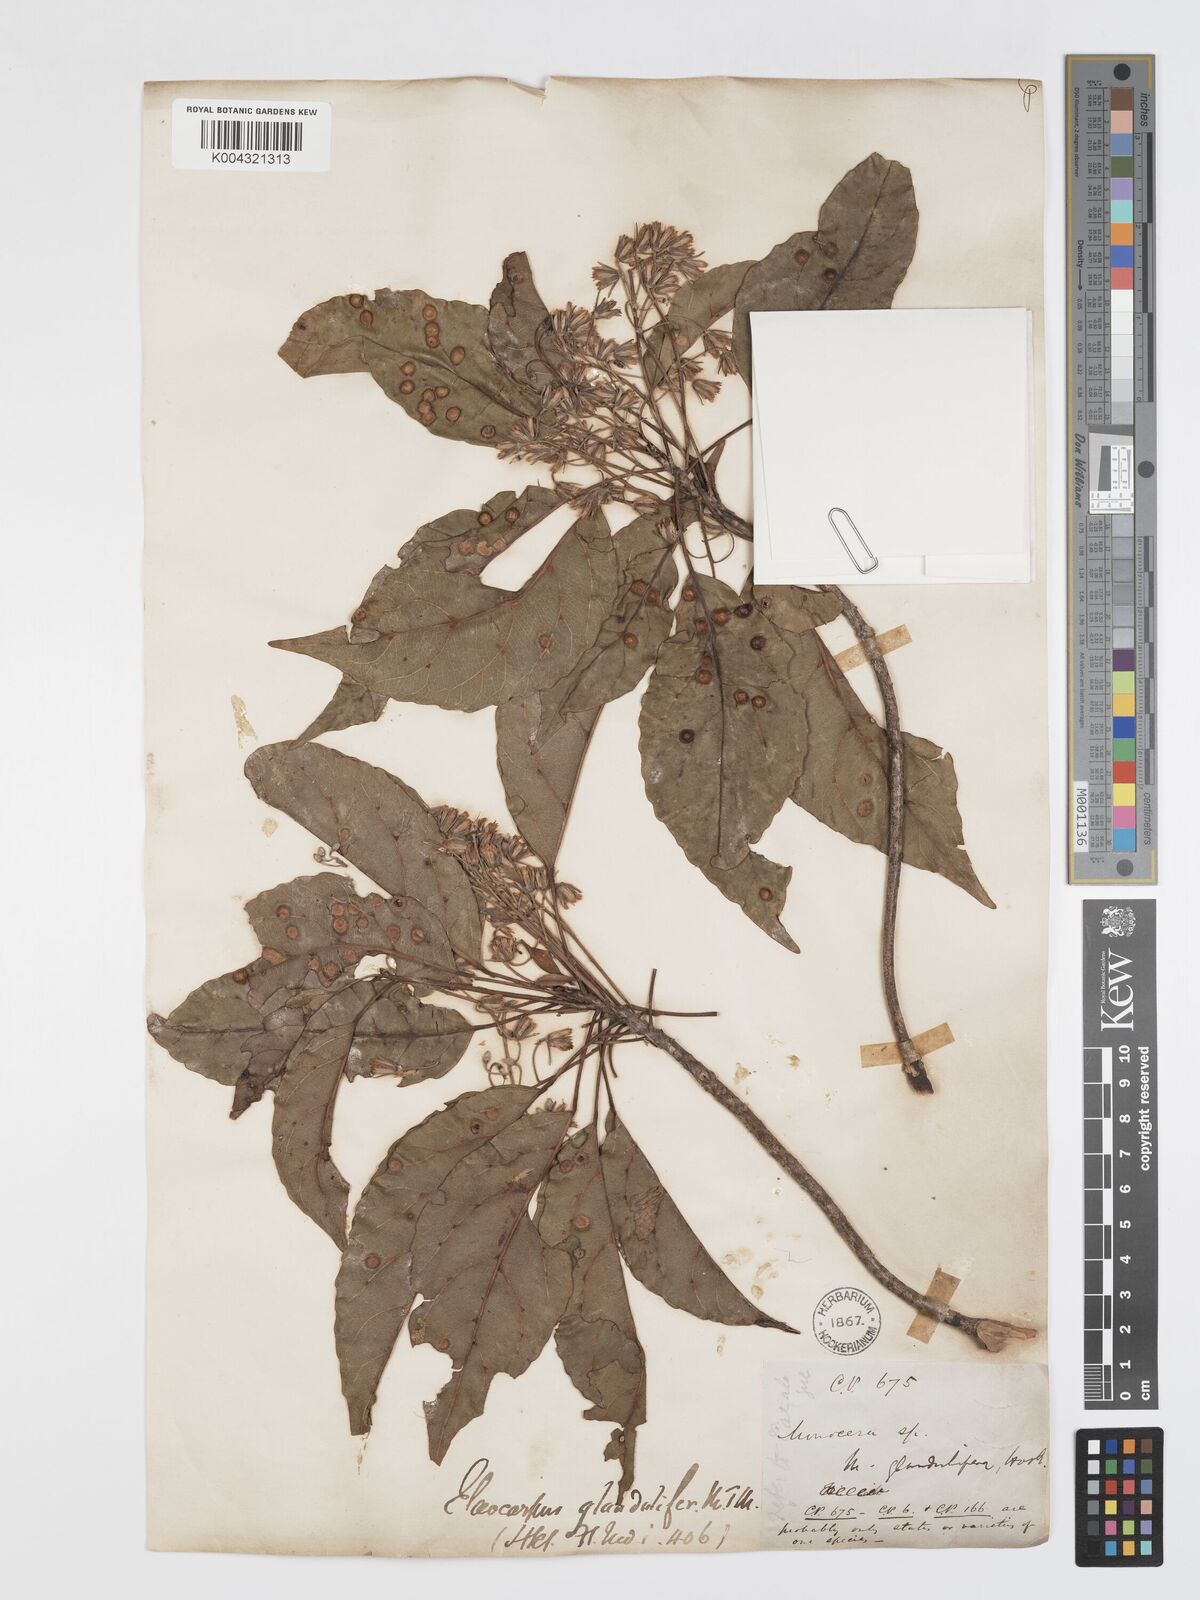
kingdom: Plantae
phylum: Tracheophyta
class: Magnoliopsida
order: Oxalidales
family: Elaeocarpaceae
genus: Elaeocarpus
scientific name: Elaeocarpus glandulifer
